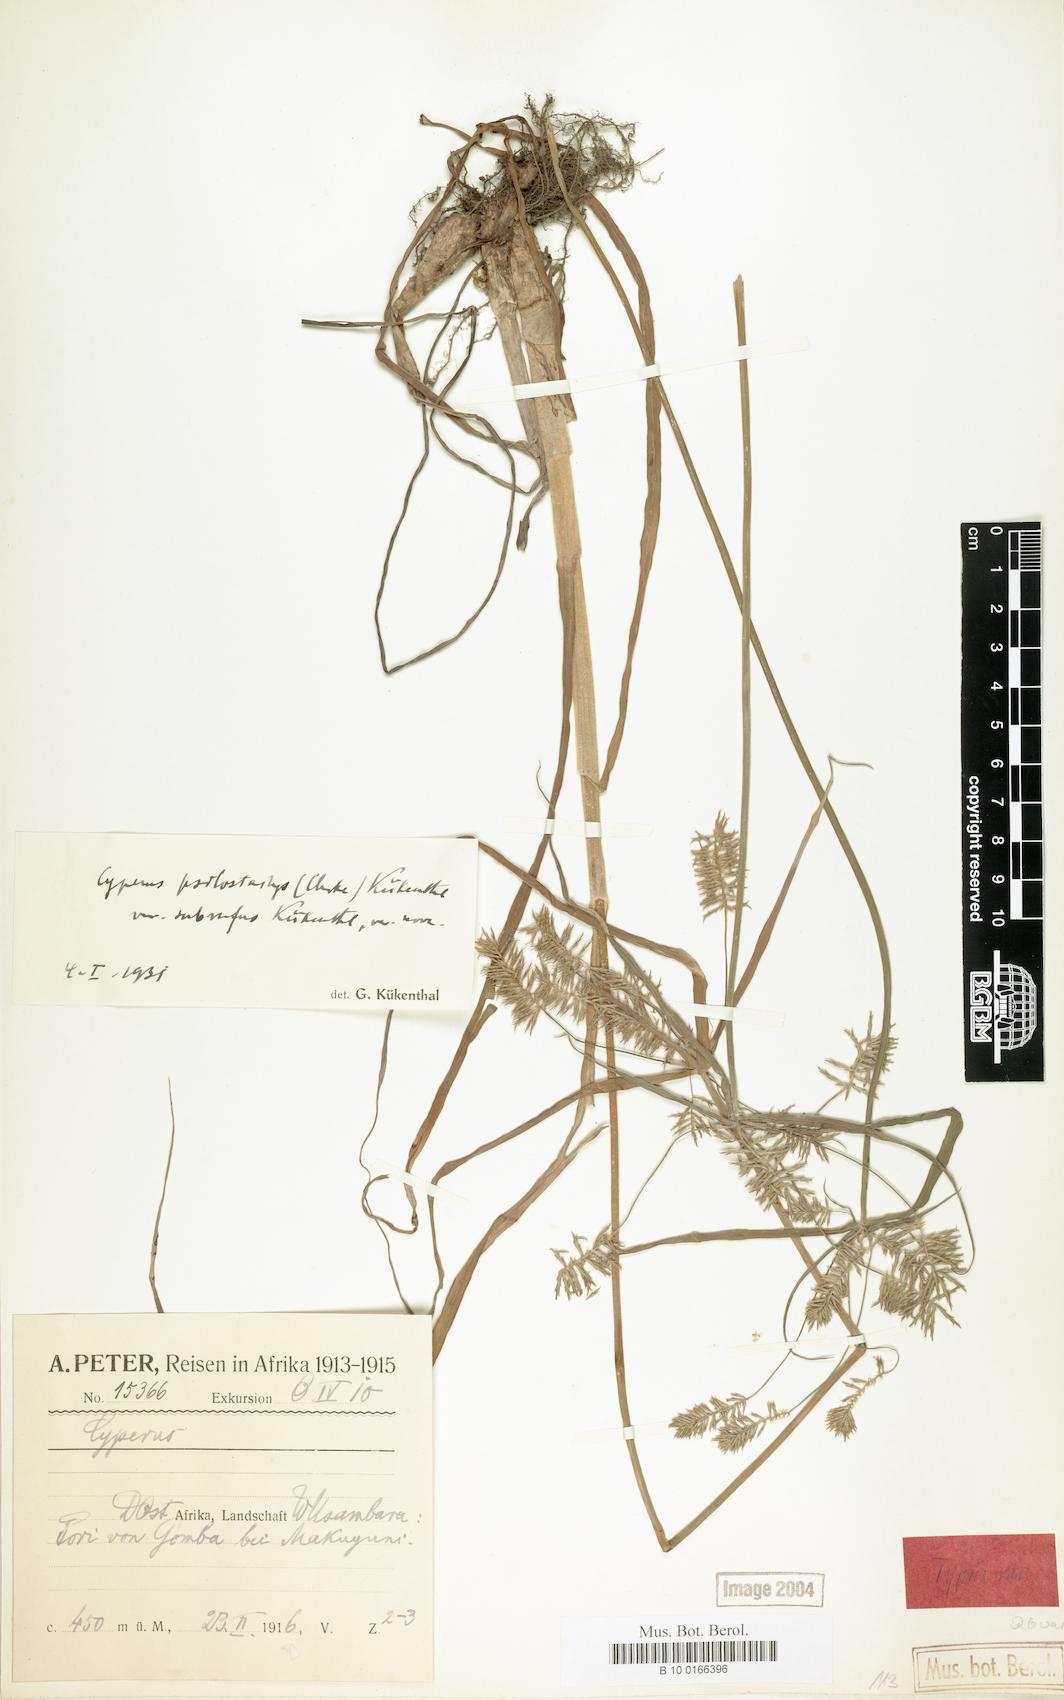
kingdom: Plantae
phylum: Tracheophyta
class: Liliopsida
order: Poales
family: Cyperaceae
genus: Cyperus
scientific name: Cyperus trigonellus
